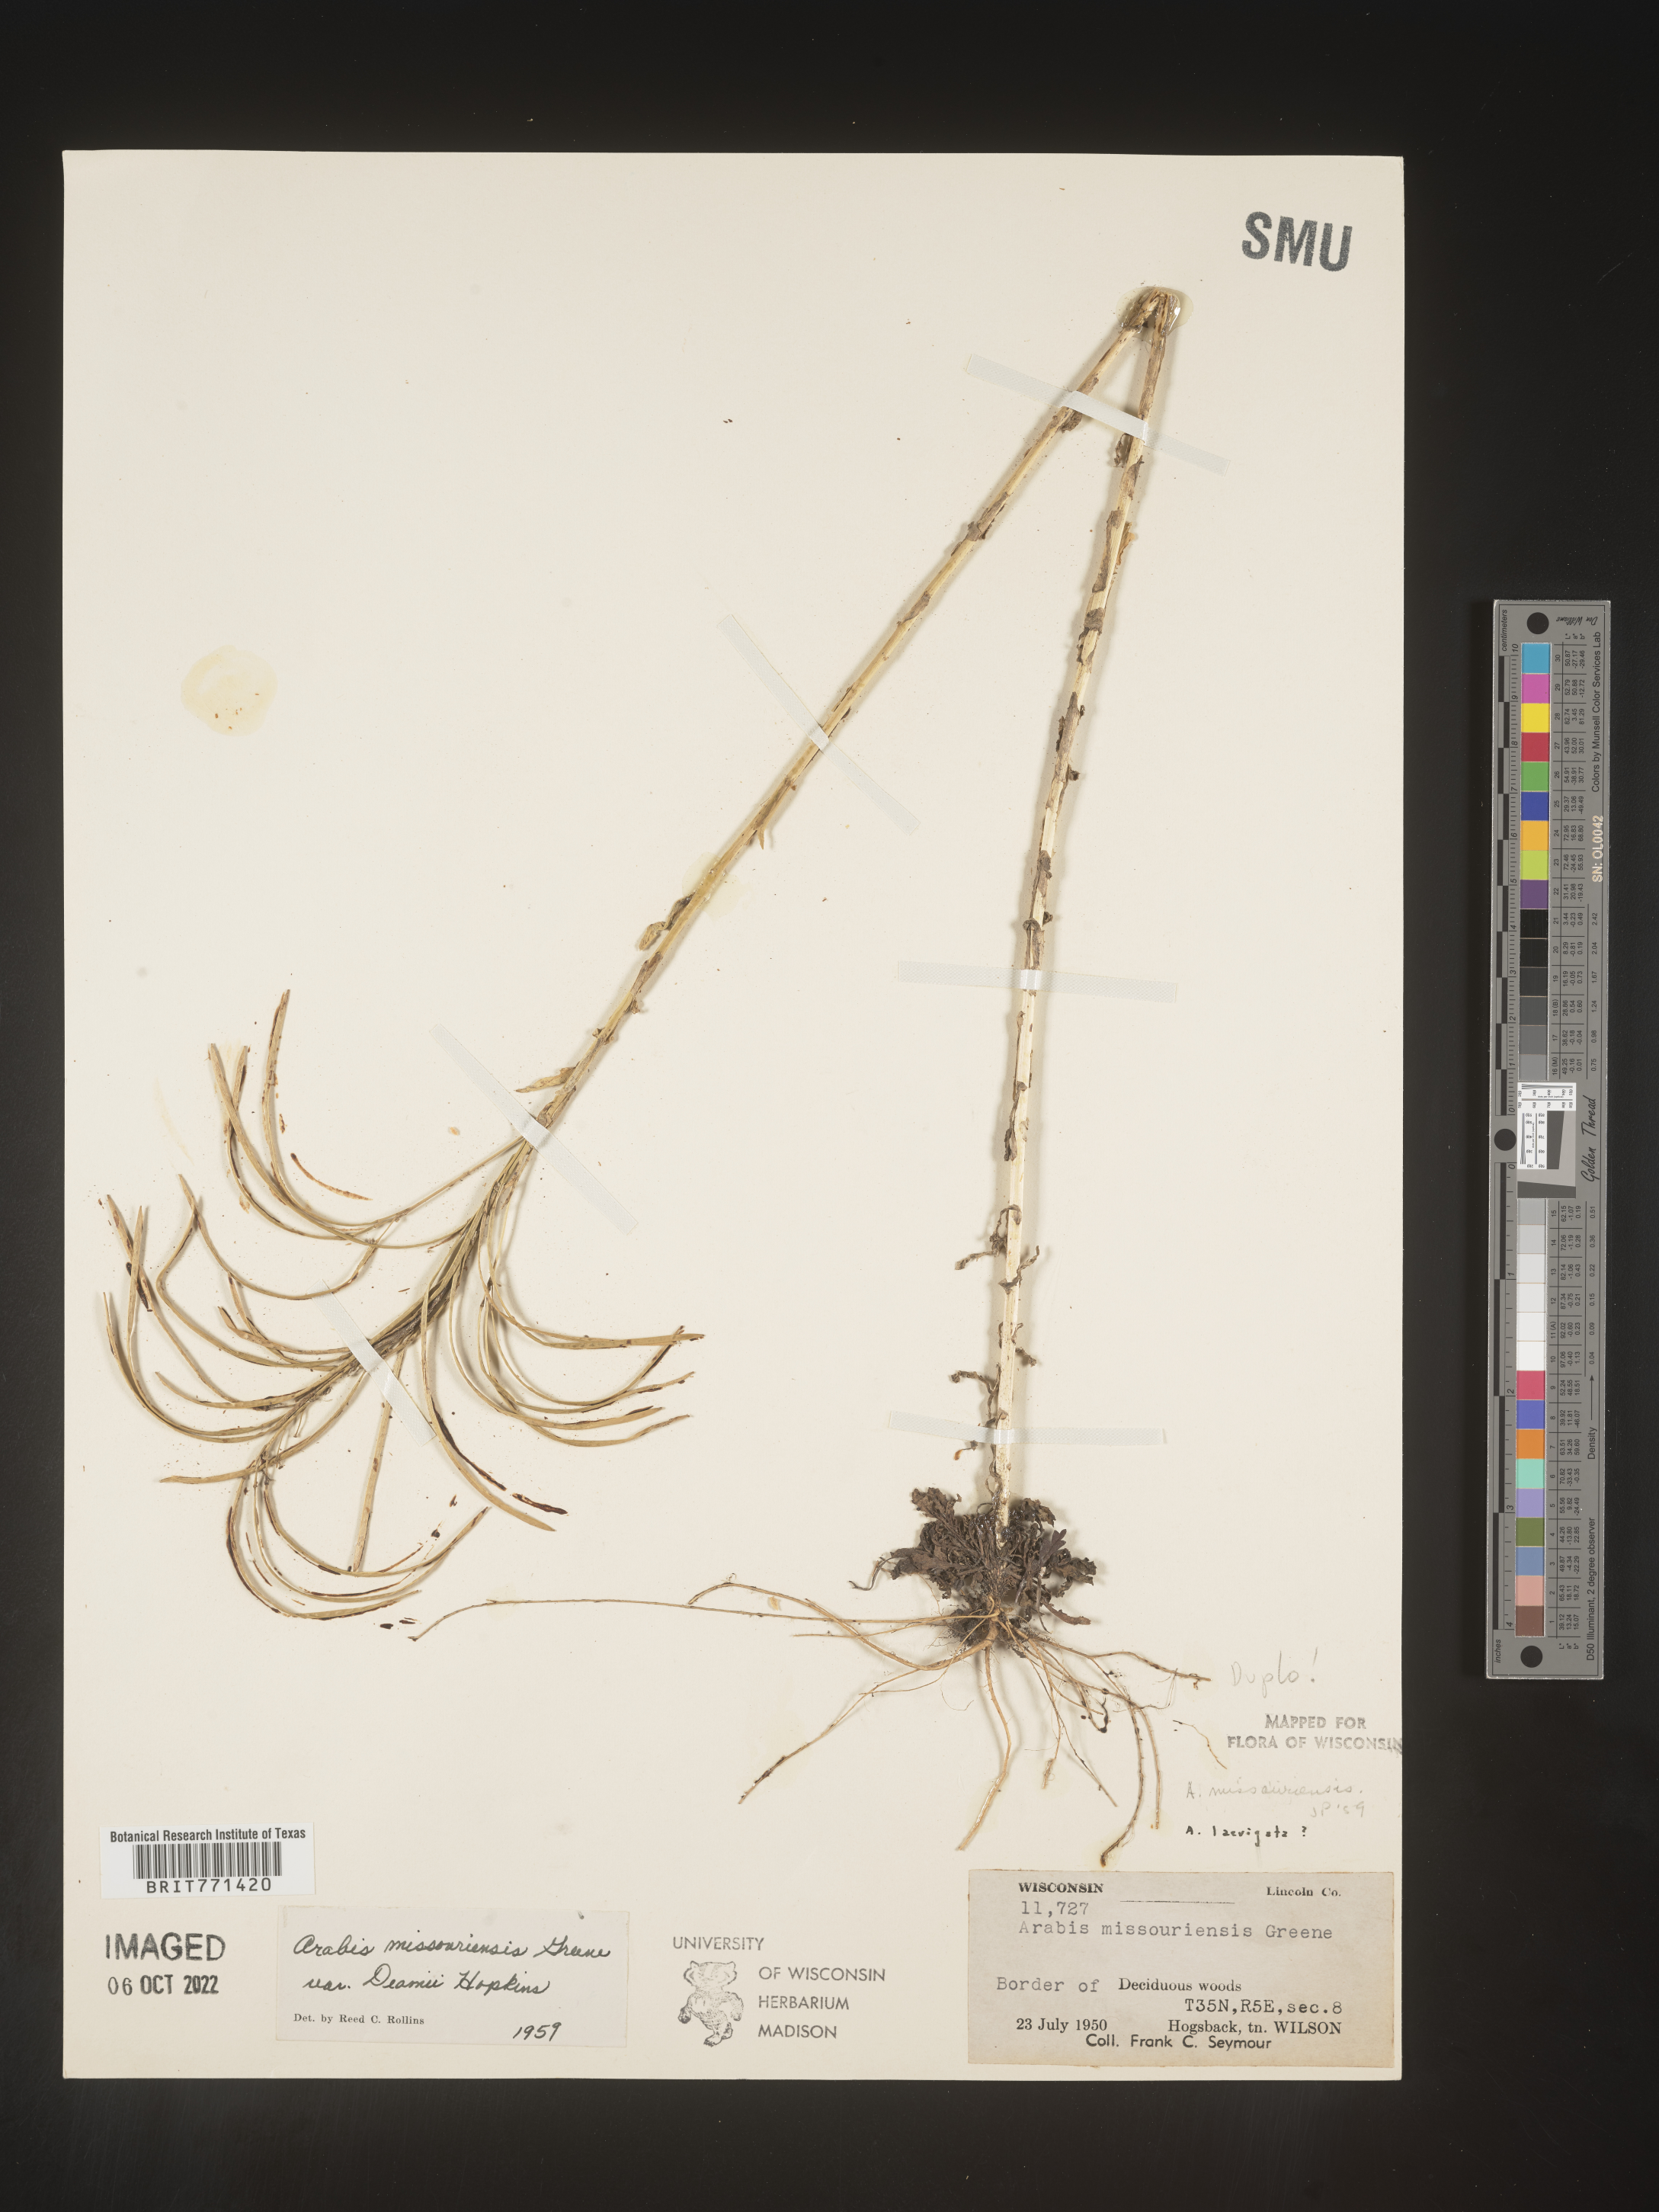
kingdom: Plantae
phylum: Tracheophyta
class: Magnoliopsida
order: Brassicales
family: Brassicaceae
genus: Arabis
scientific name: Arabis
